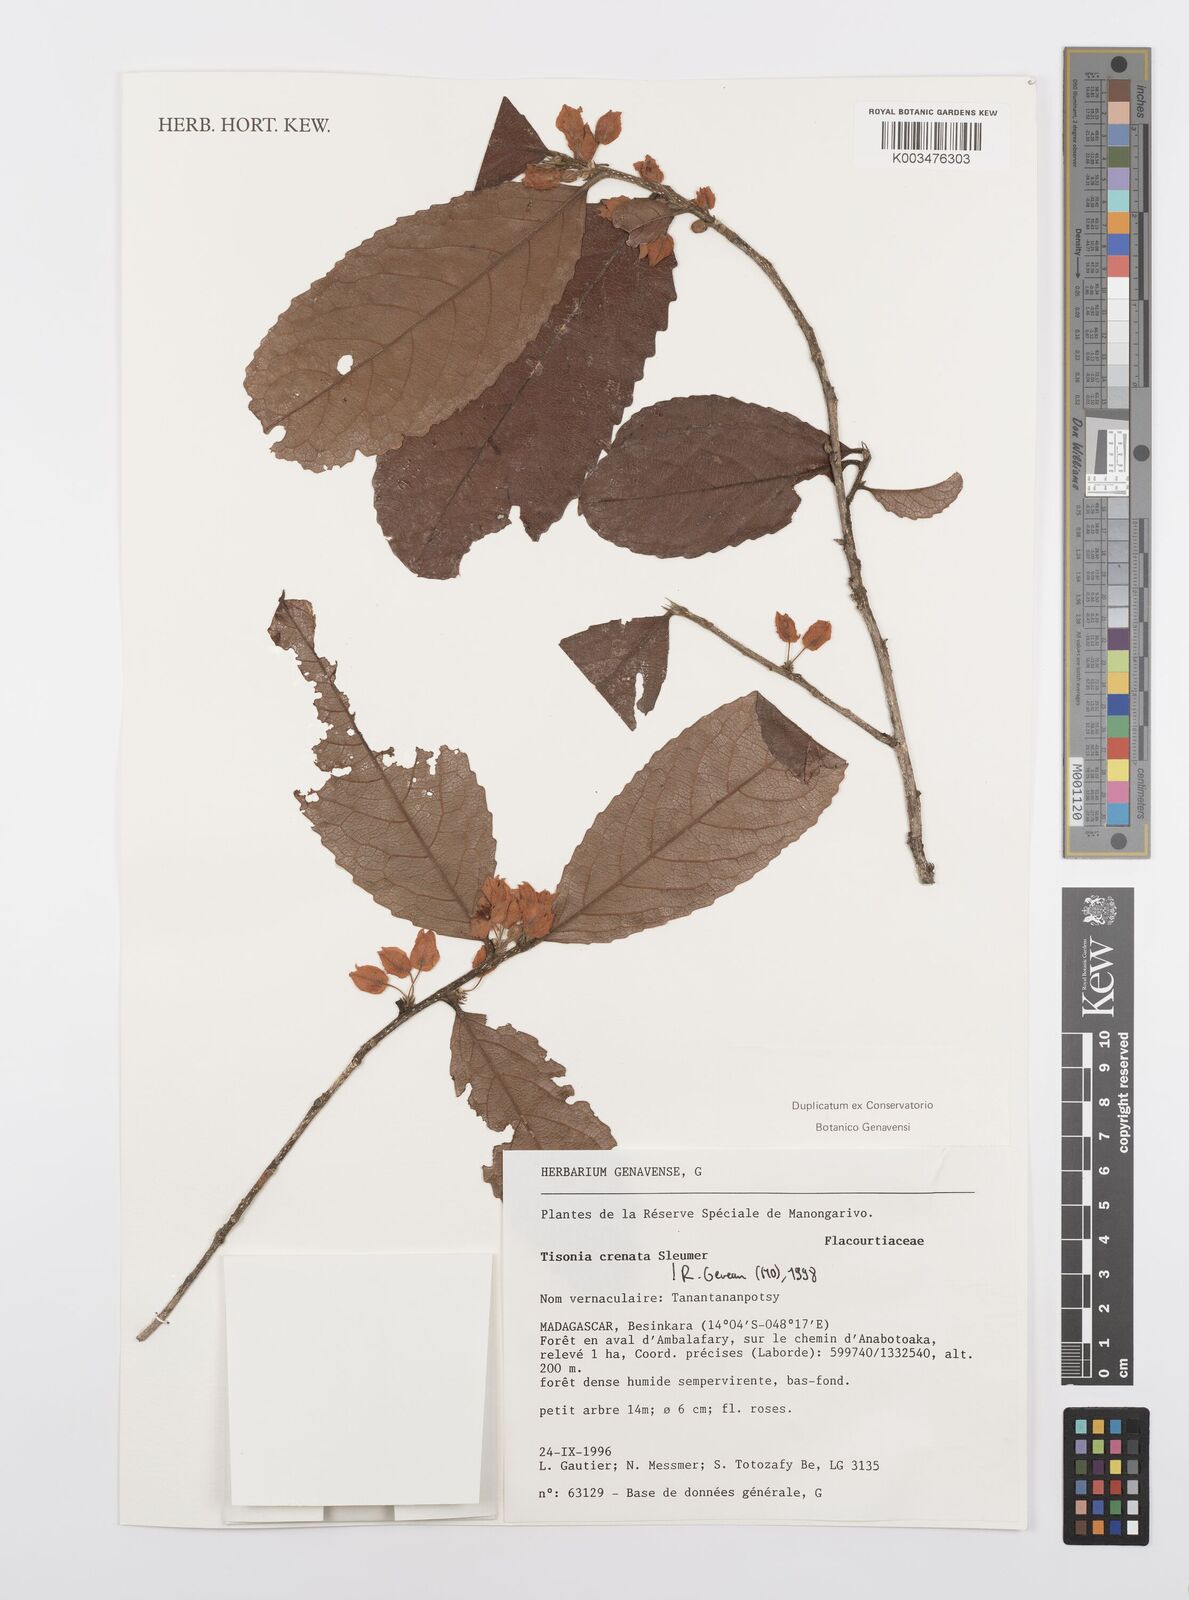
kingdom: Plantae
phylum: Tracheophyta
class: Magnoliopsida
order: Malpighiales
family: Salicaceae
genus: Tisonia
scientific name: Tisonia baronii
